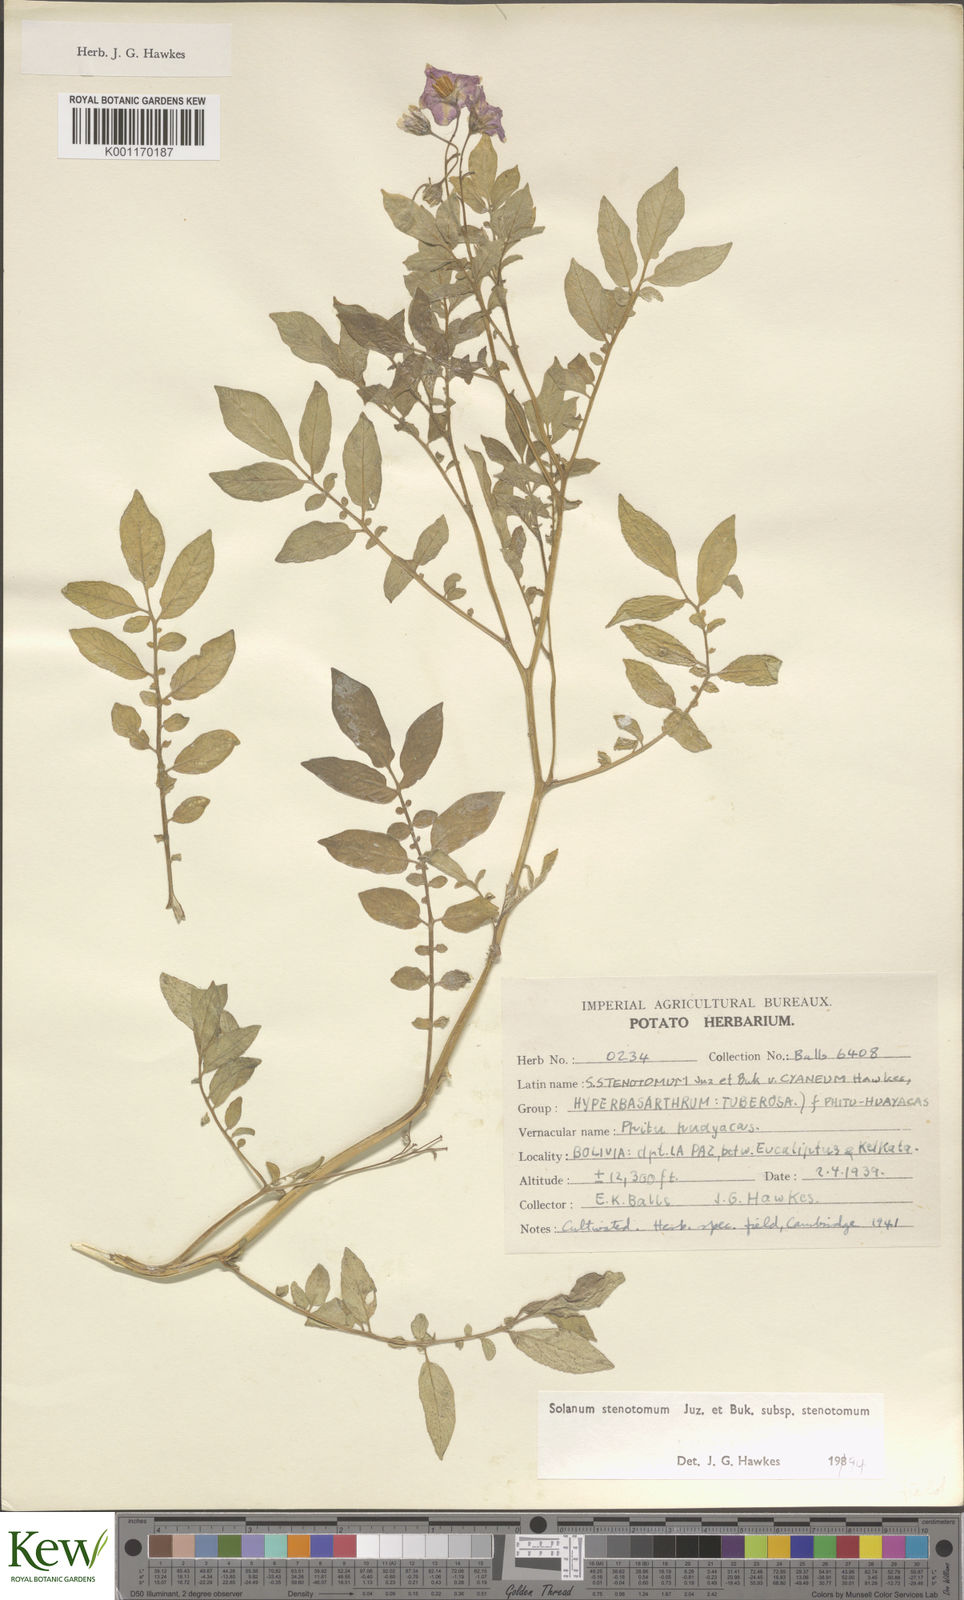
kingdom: Plantae
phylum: Tracheophyta
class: Magnoliopsida
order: Solanales
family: Solanaceae
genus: Solanum
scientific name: Solanum tuberosum
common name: Potato
